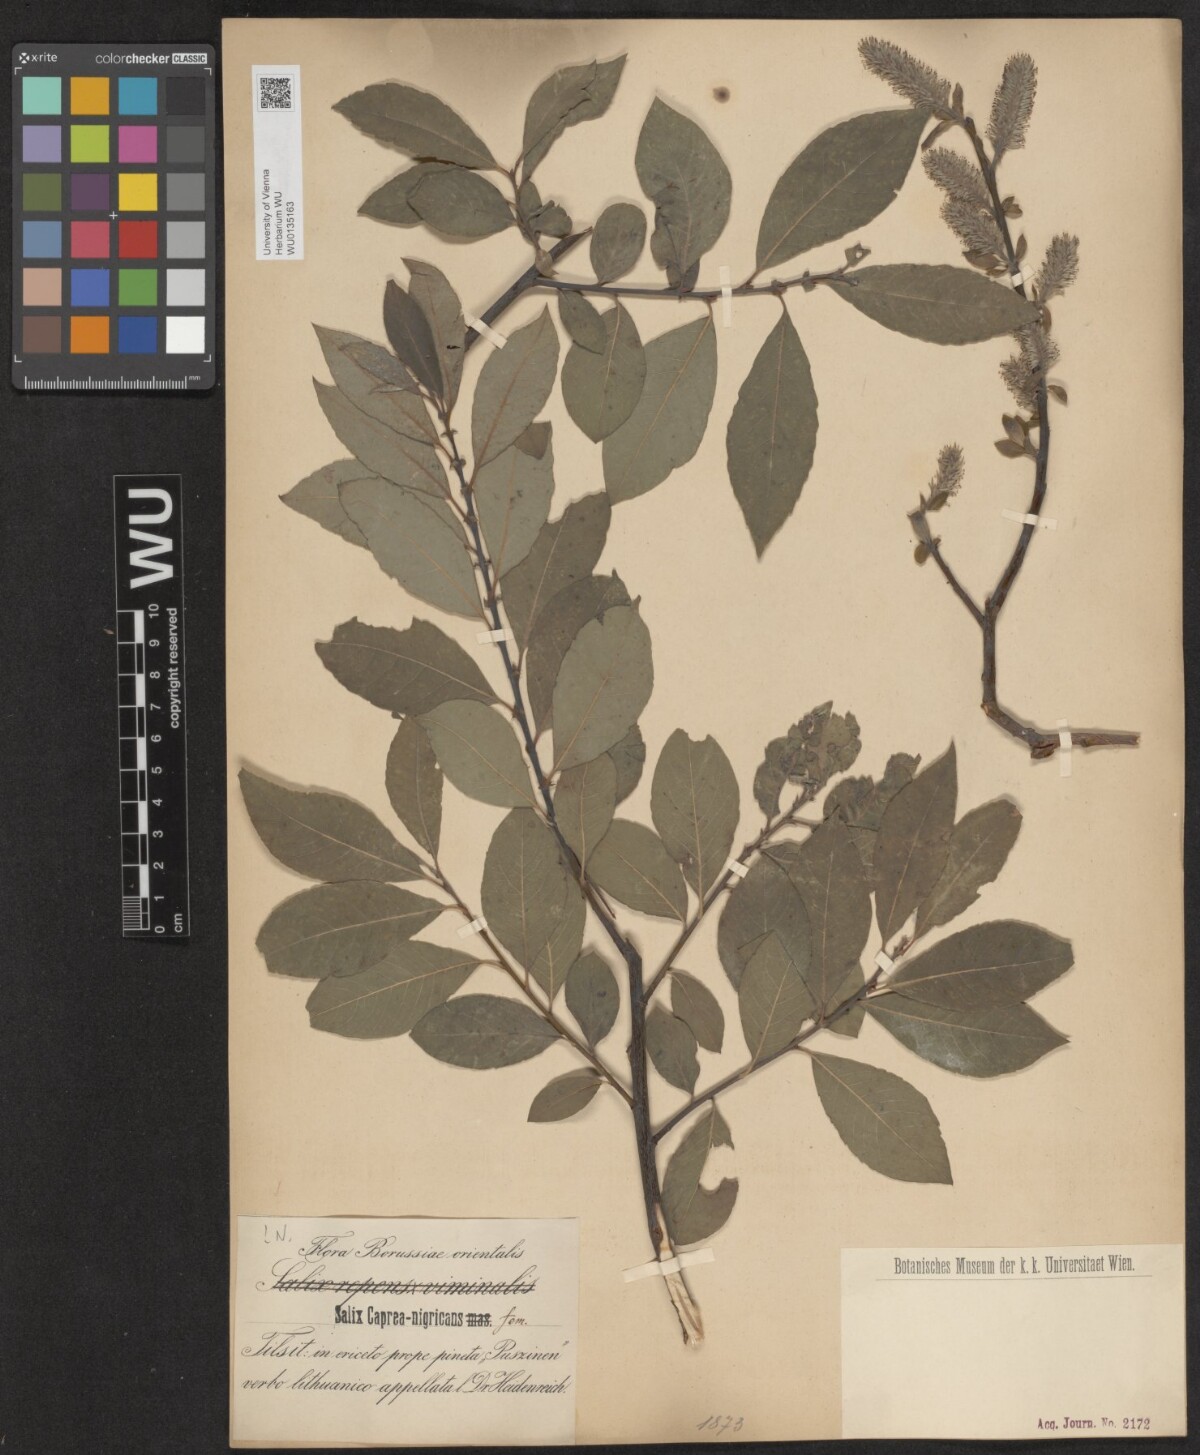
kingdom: Plantae
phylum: Tracheophyta
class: Magnoliopsida
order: Malpighiales
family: Salicaceae
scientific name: Salicaceae
